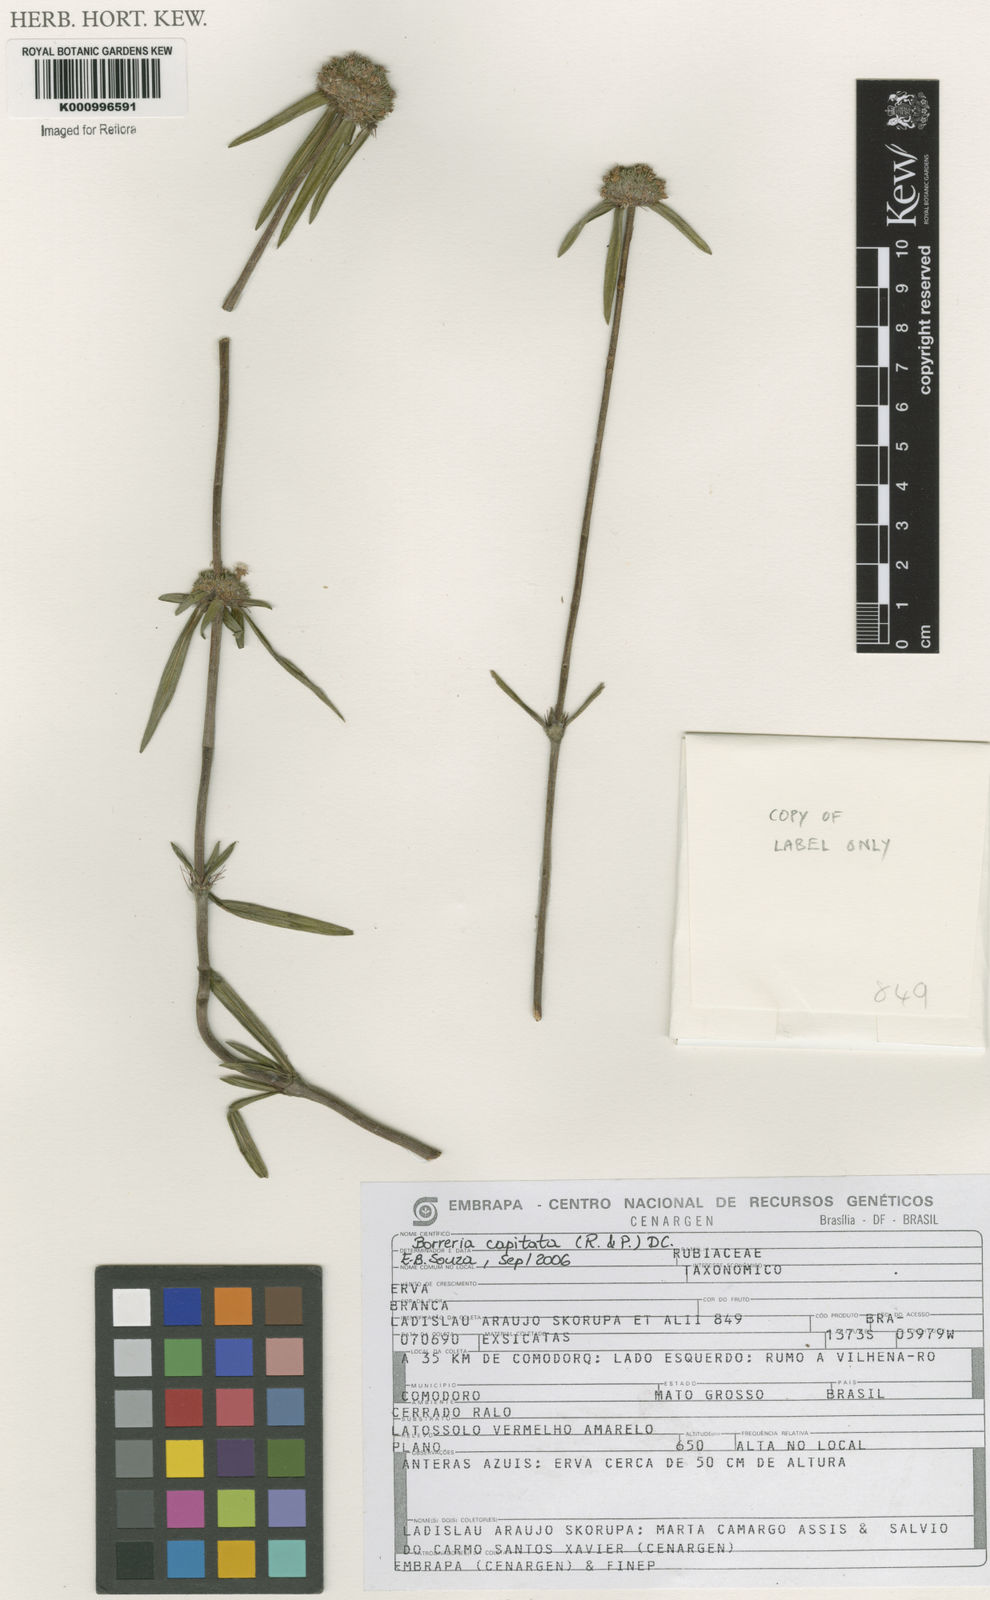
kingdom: Plantae
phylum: Tracheophyta
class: Magnoliopsida
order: Gentianales
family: Rubiaceae
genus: Spermacoce
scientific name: Spermacoce capitata
